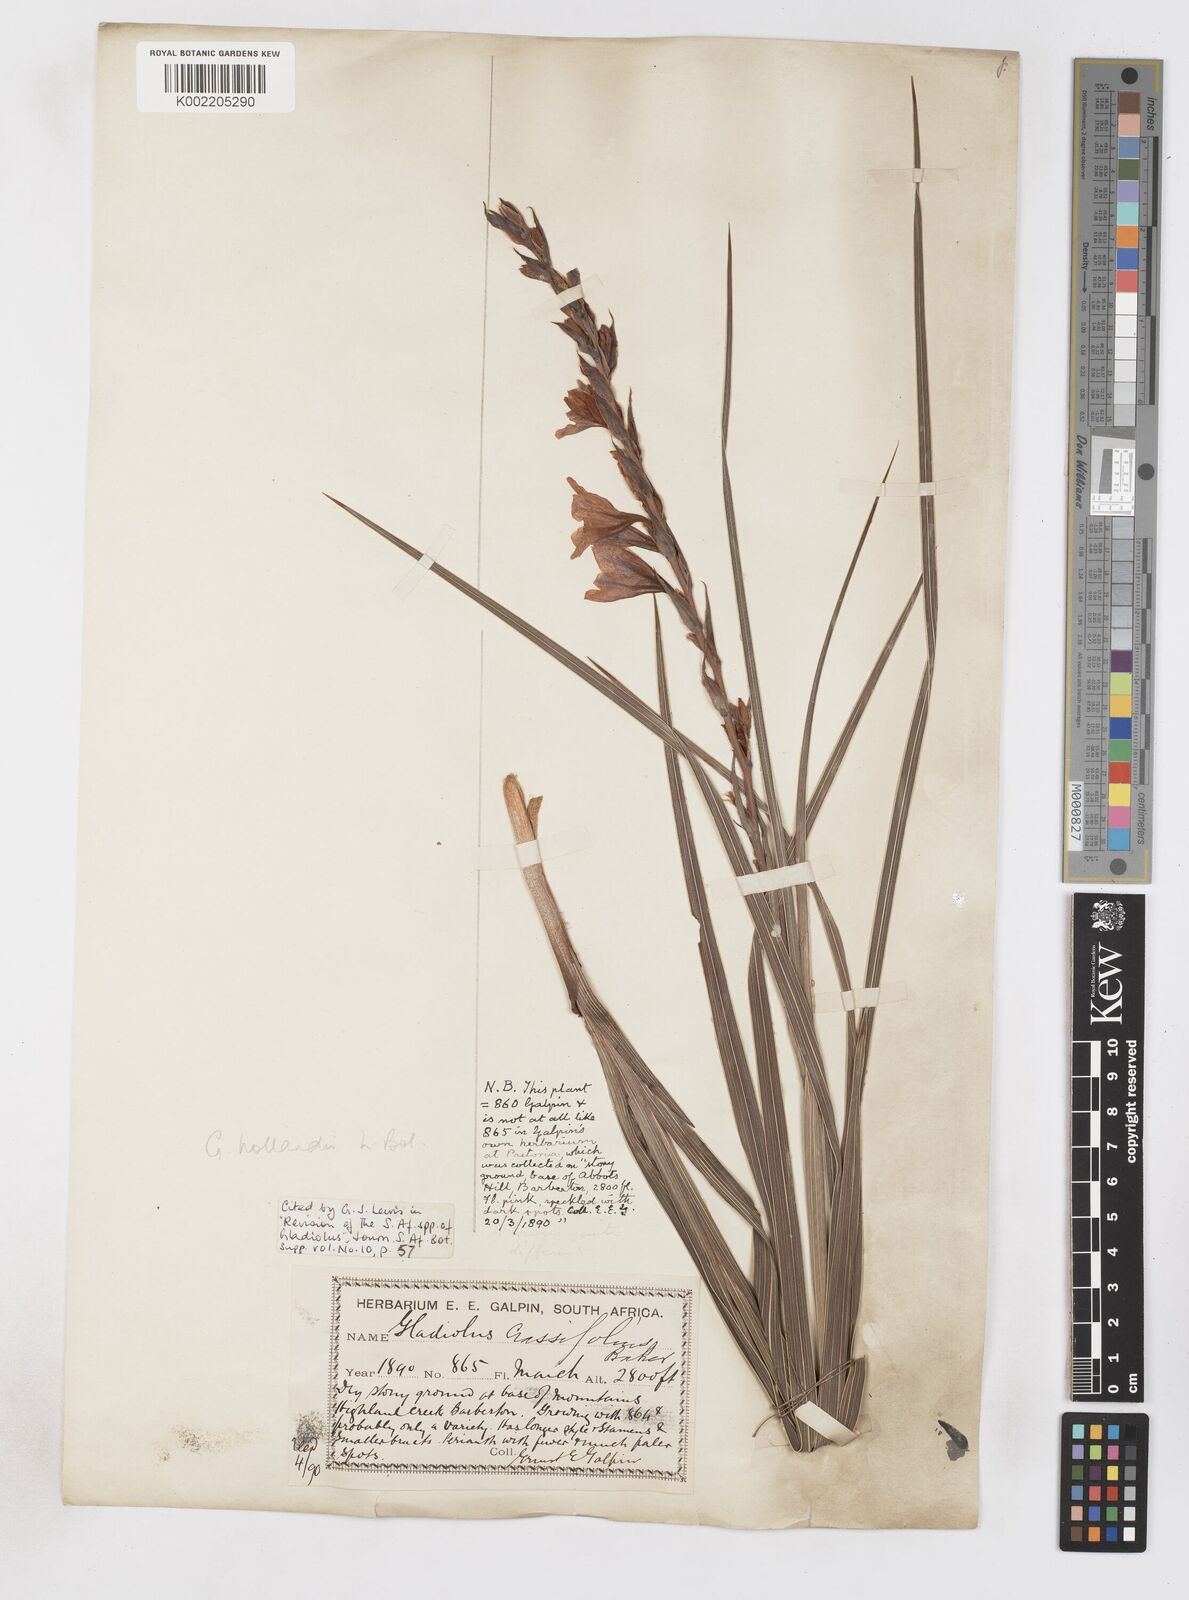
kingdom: Plantae
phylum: Tracheophyta
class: Liliopsida
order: Asparagales
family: Iridaceae
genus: Gladiolus
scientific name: Gladiolus hollandii
